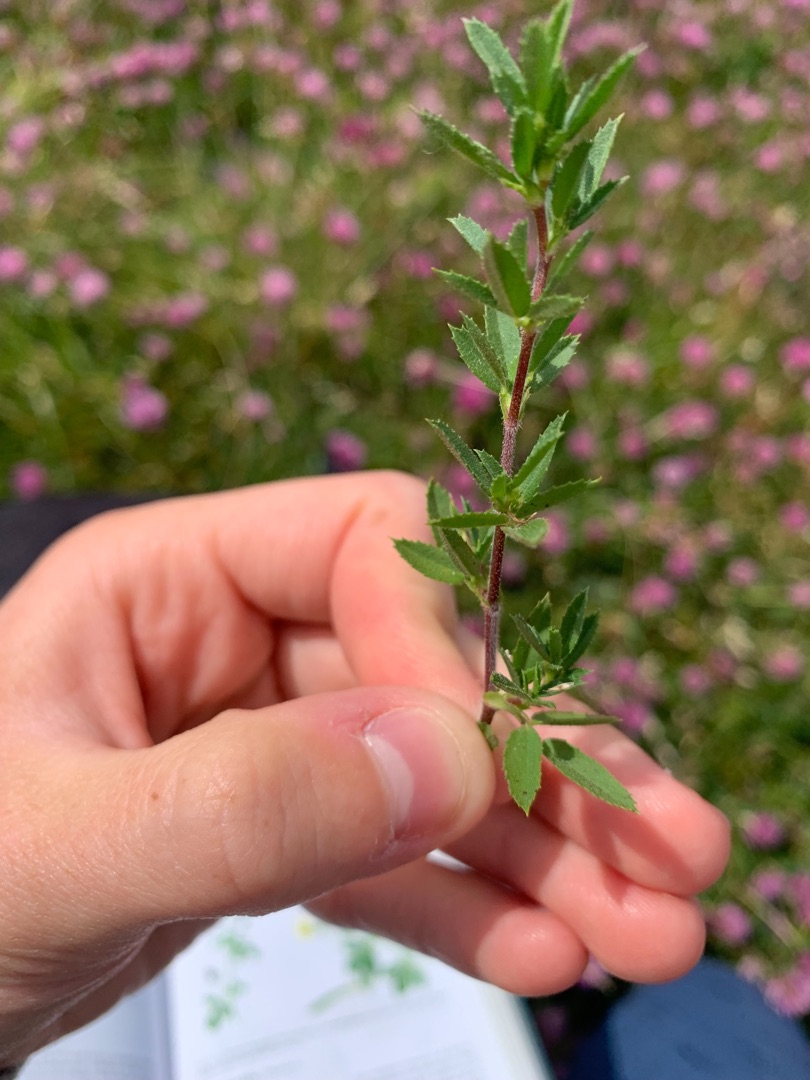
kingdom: Plantae
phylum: Tracheophyta
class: Magnoliopsida
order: Fabales
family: Fabaceae
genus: Ononis
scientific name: Ononis spinosa
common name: Strand-krageklo
